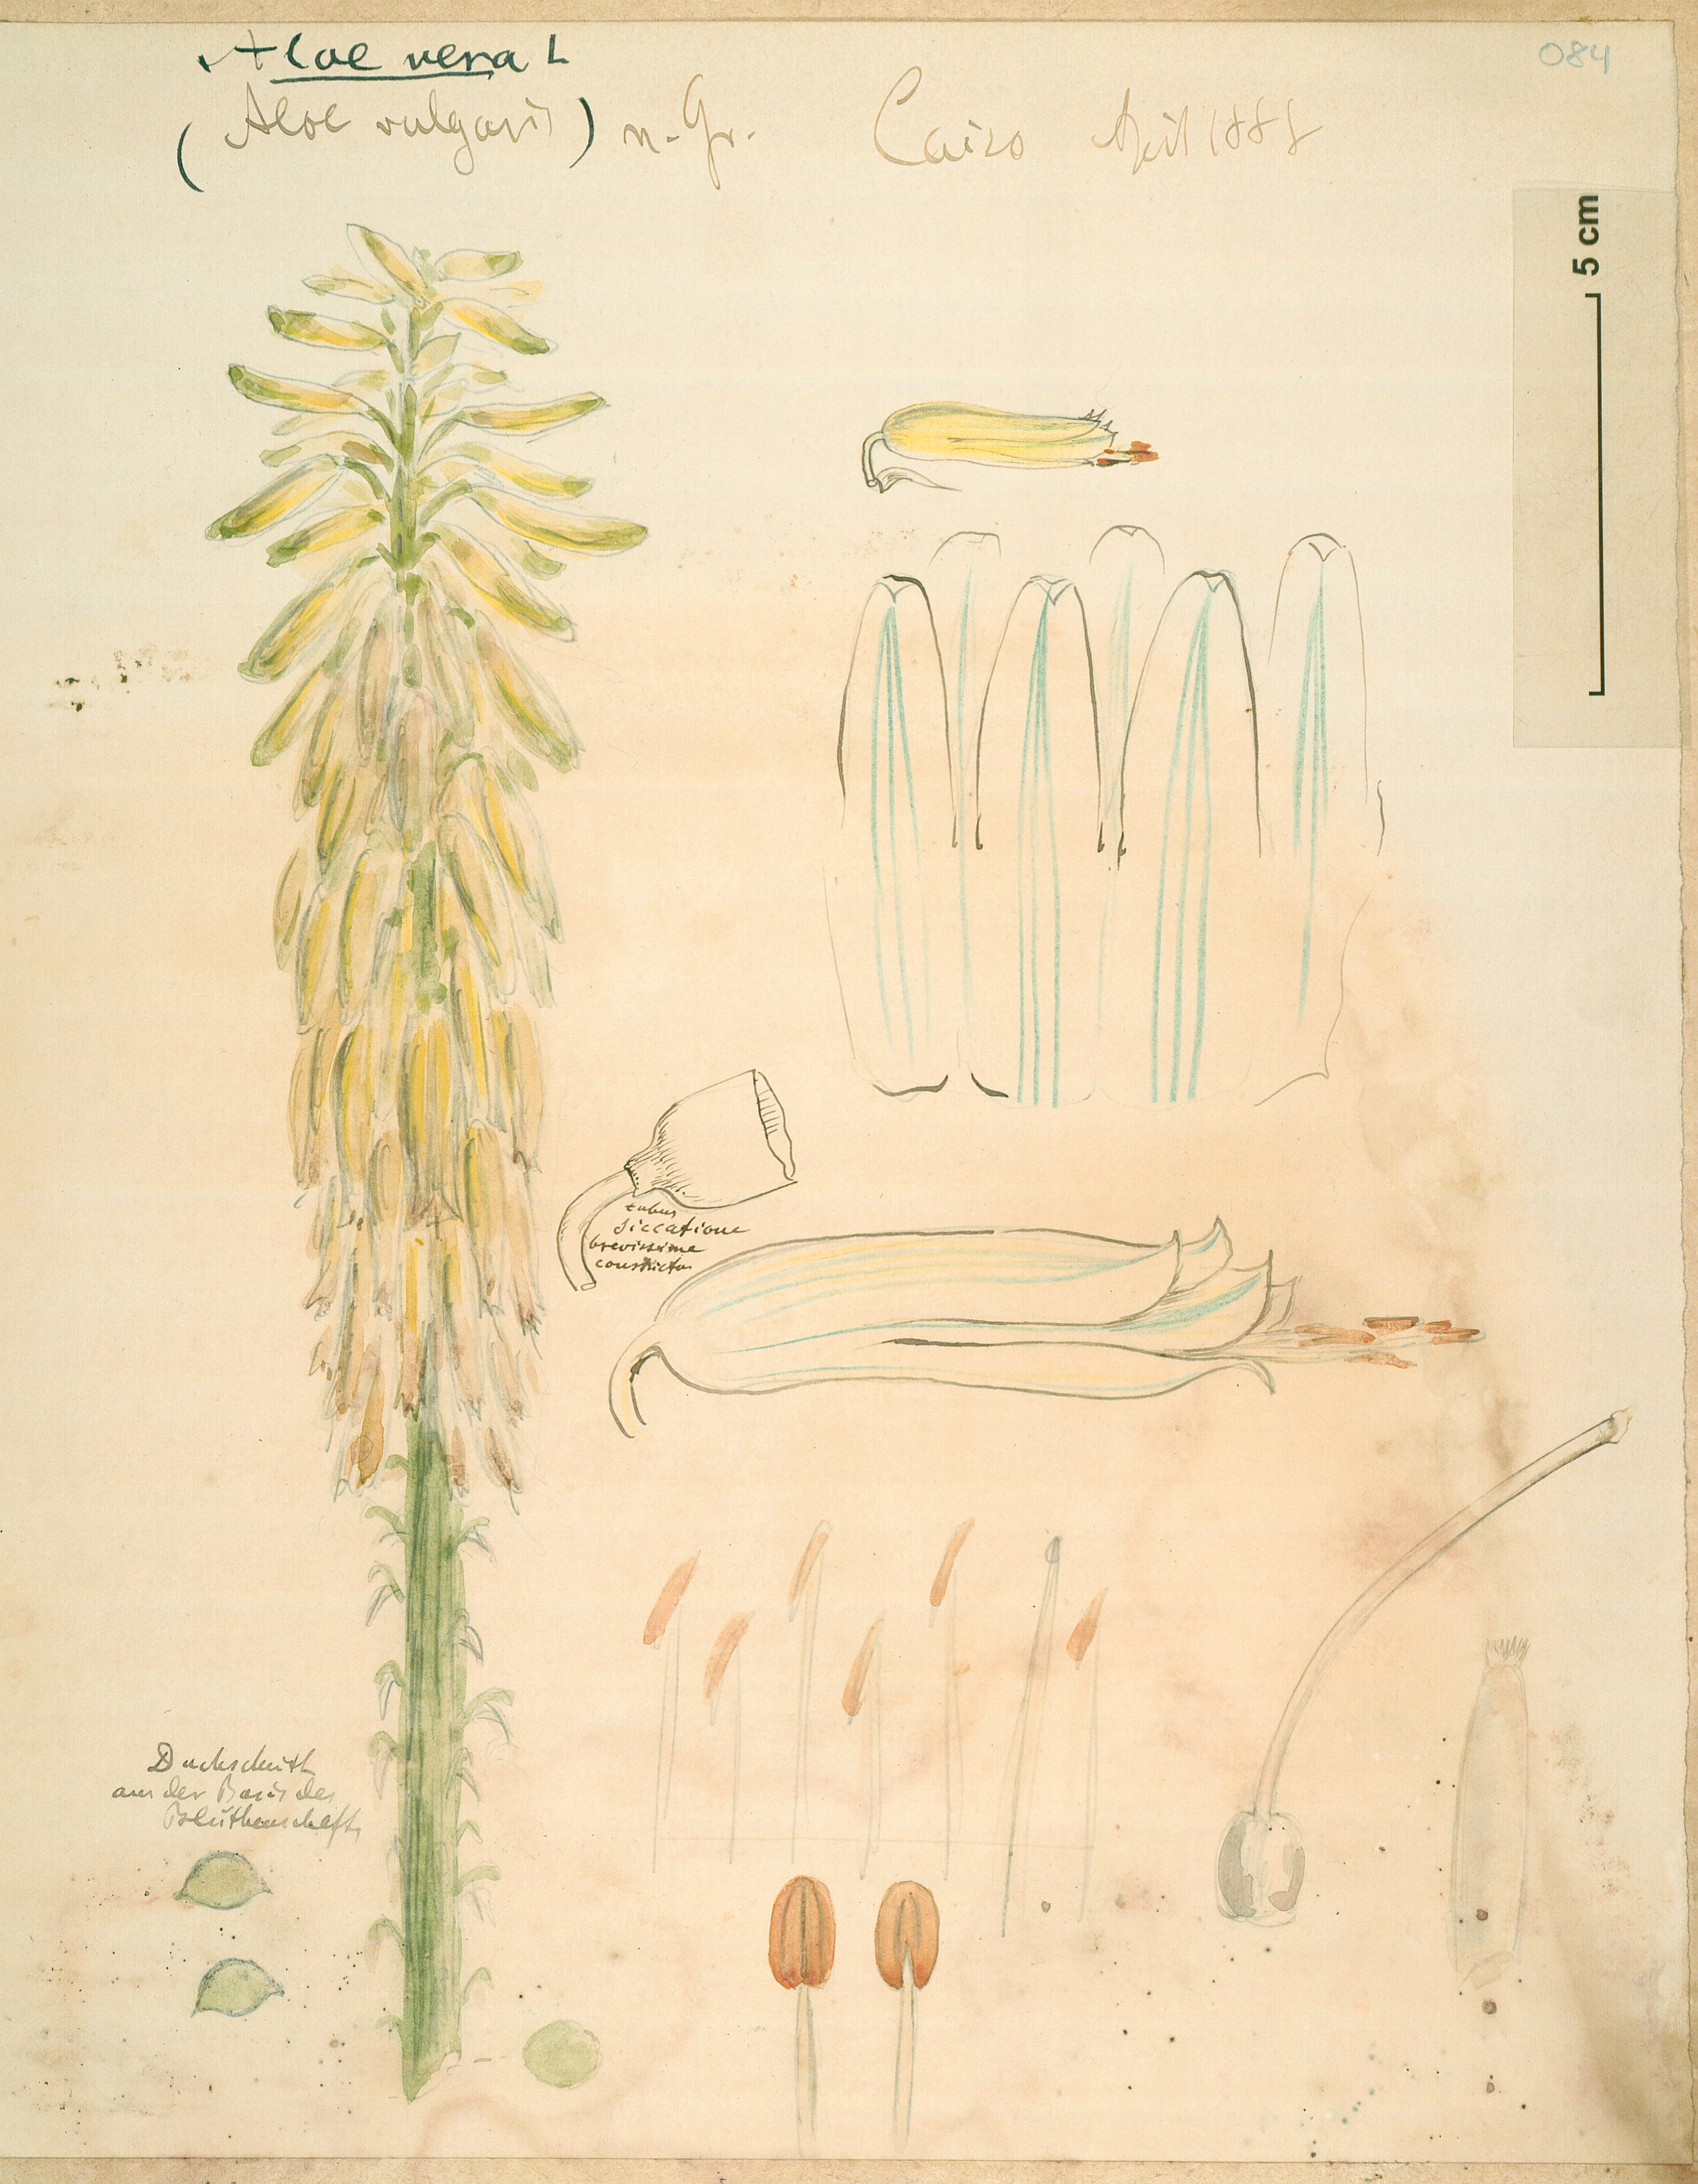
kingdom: Plantae
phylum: Tracheophyta
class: Liliopsida
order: Asparagales
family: Asphodelaceae
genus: Aloe
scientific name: Aloe vera
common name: Barbados aloe
